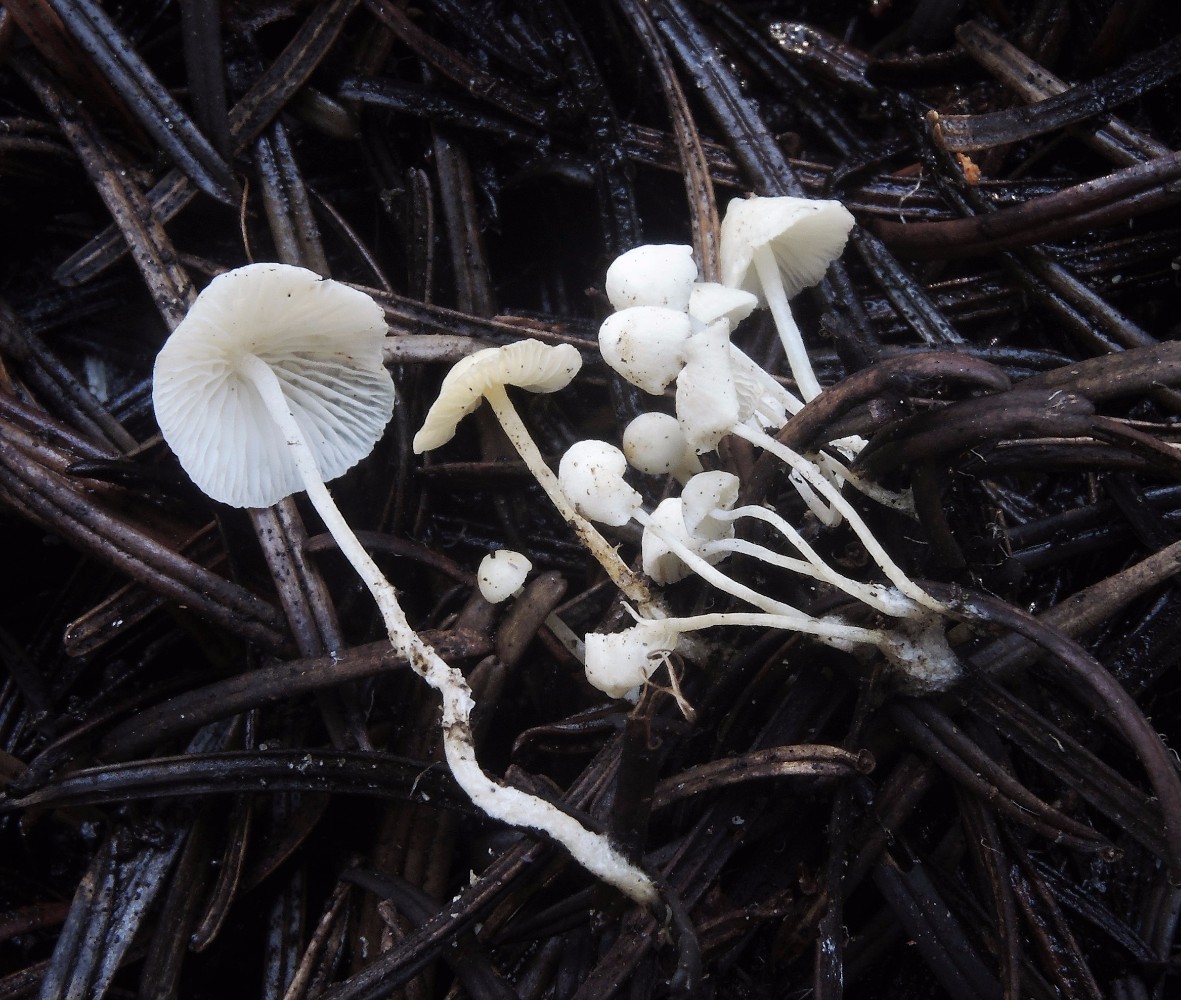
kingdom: Fungi
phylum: Basidiomycota
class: Agaricomycetes
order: Agaricales
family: Mycenaceae
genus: Hemimycena
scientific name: Hemimycena lactea
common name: mælkehvid huesvamp
